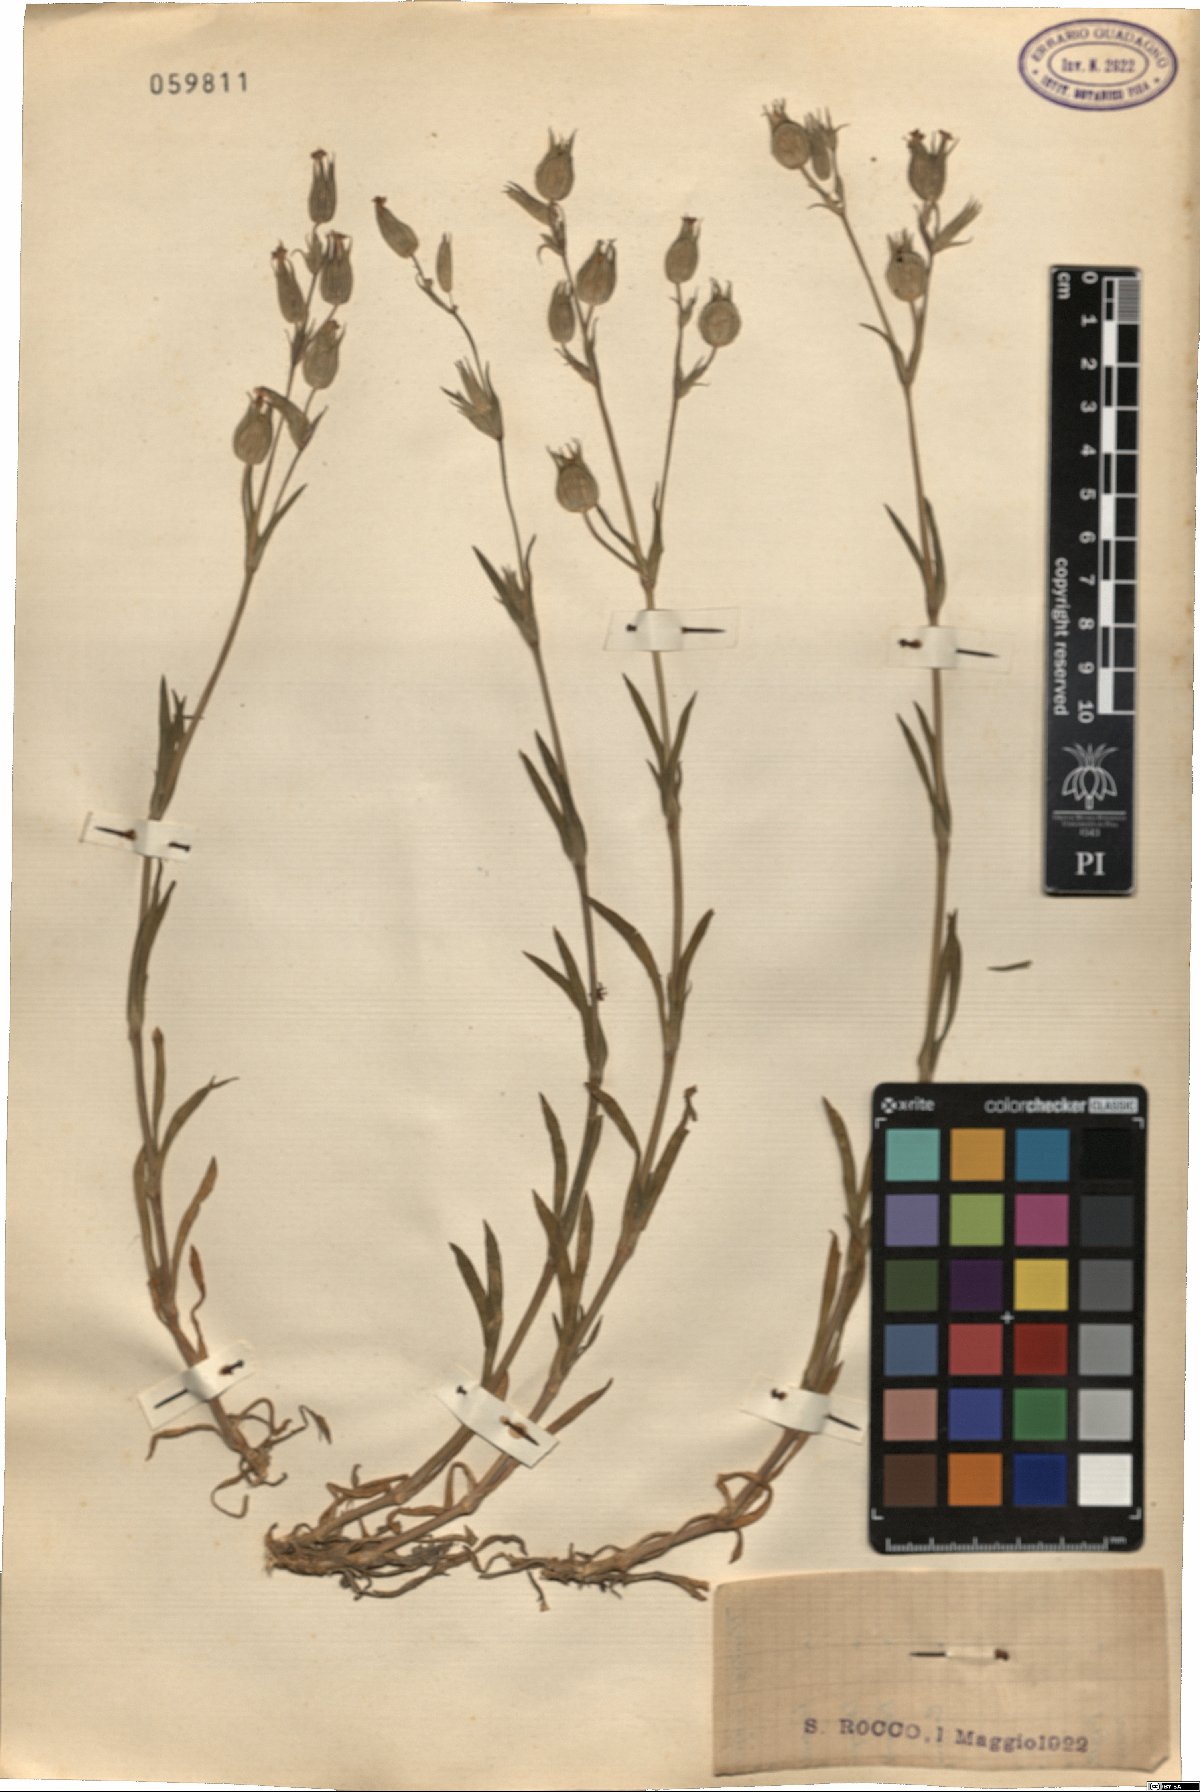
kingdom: Plantae
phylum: Tracheophyta
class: Magnoliopsida
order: Caryophyllales
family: Caryophyllaceae
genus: Silene
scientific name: Silene
